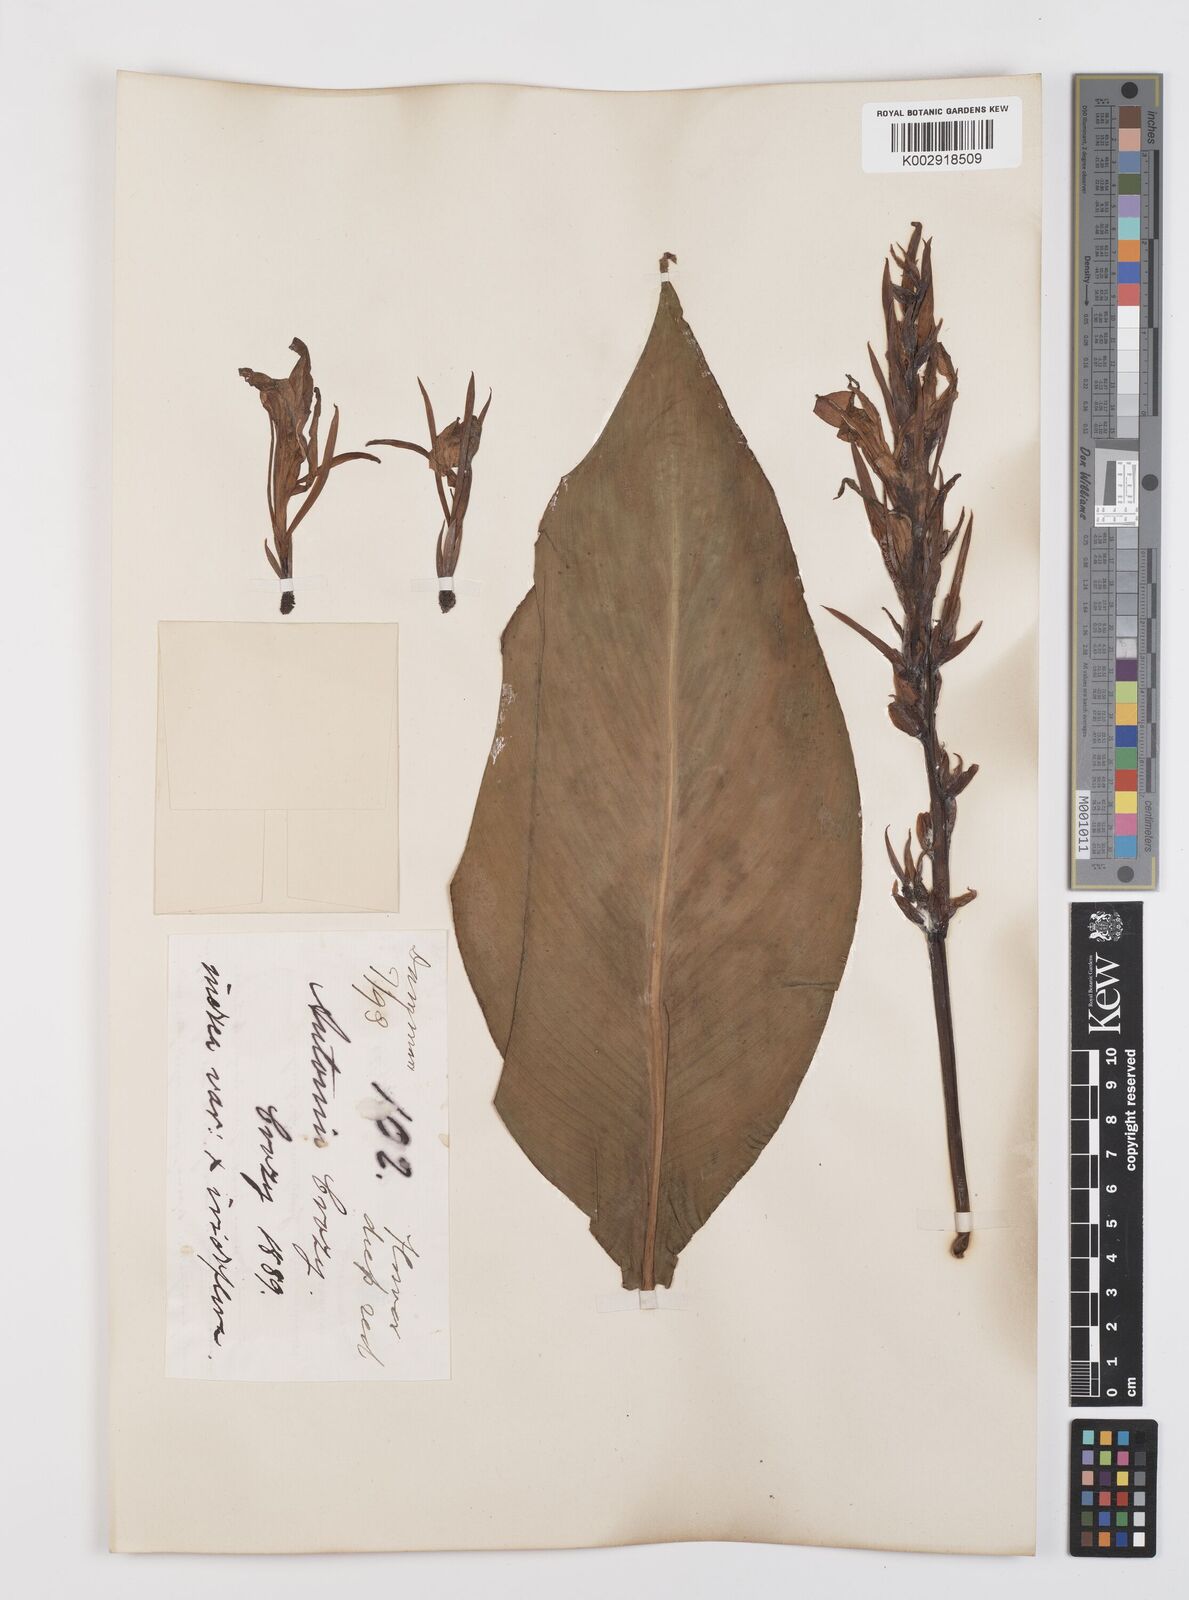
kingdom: Plantae
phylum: Tracheophyta
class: Liliopsida
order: Zingiberales
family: Cannaceae
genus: Canna
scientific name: Canna indica
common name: Indian shot
